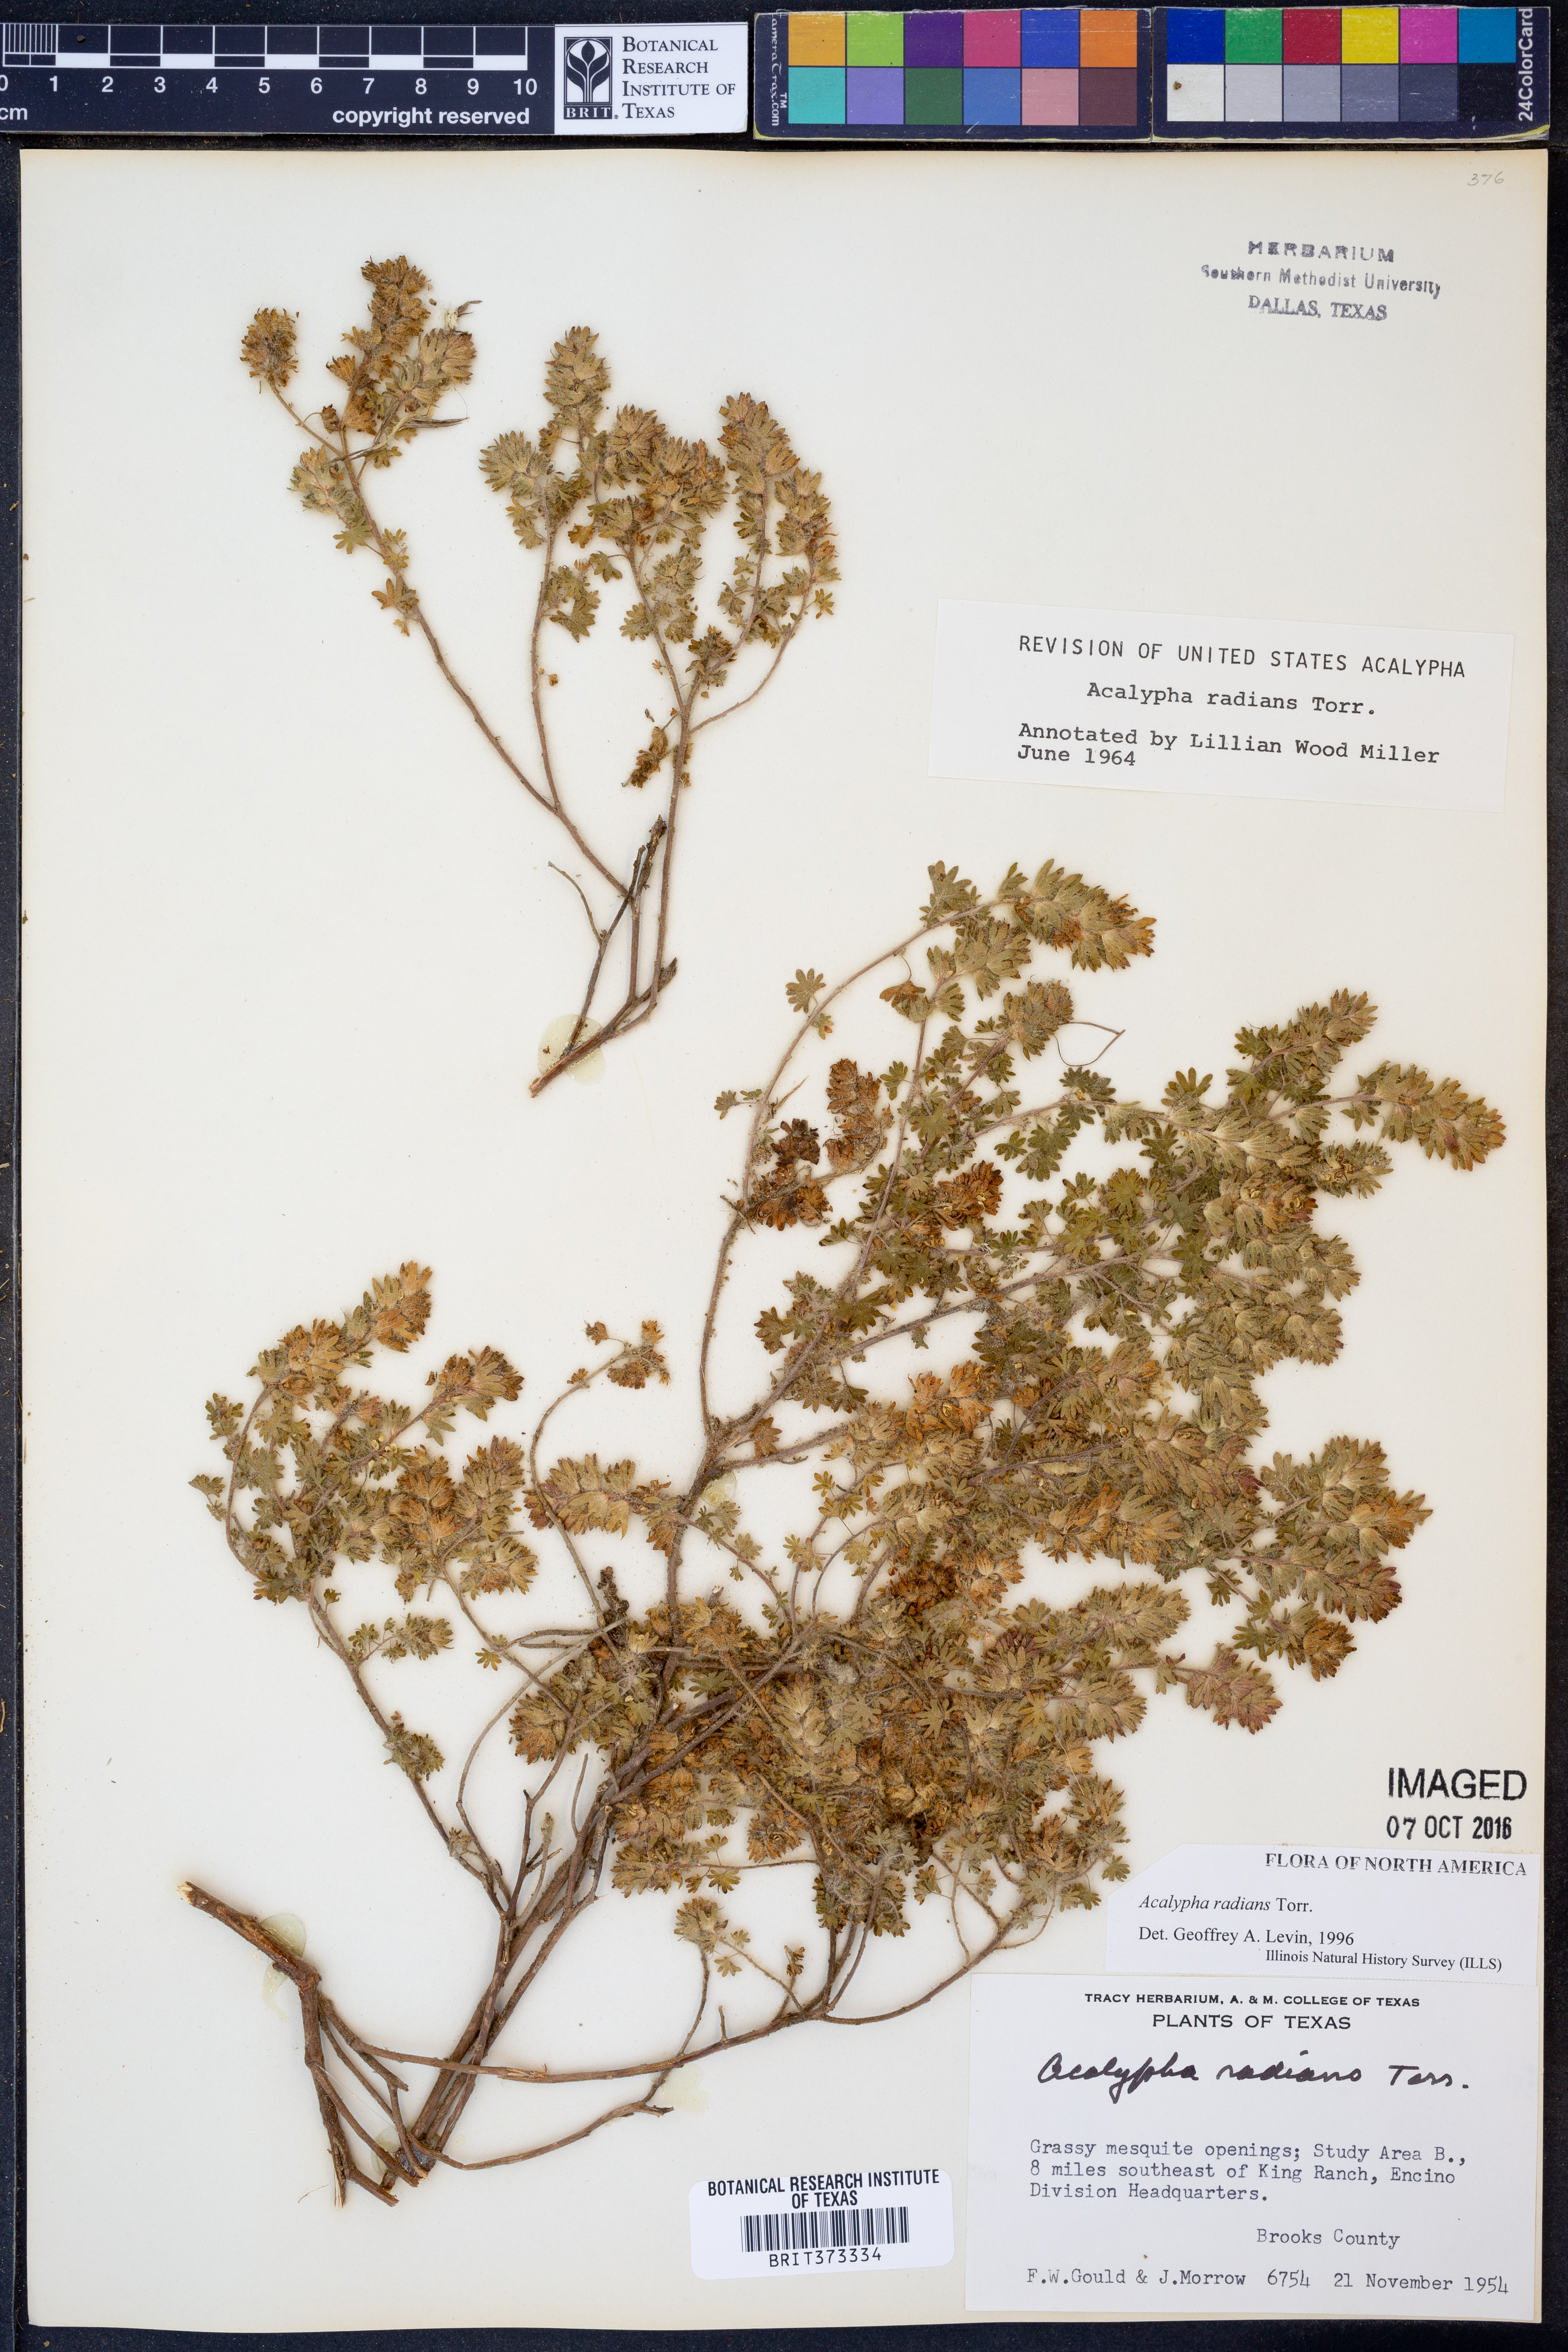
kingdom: Plantae
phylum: Tracheophyta
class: Magnoliopsida
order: Malpighiales
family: Euphorbiaceae
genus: Acalypha
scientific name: Acalypha radians
